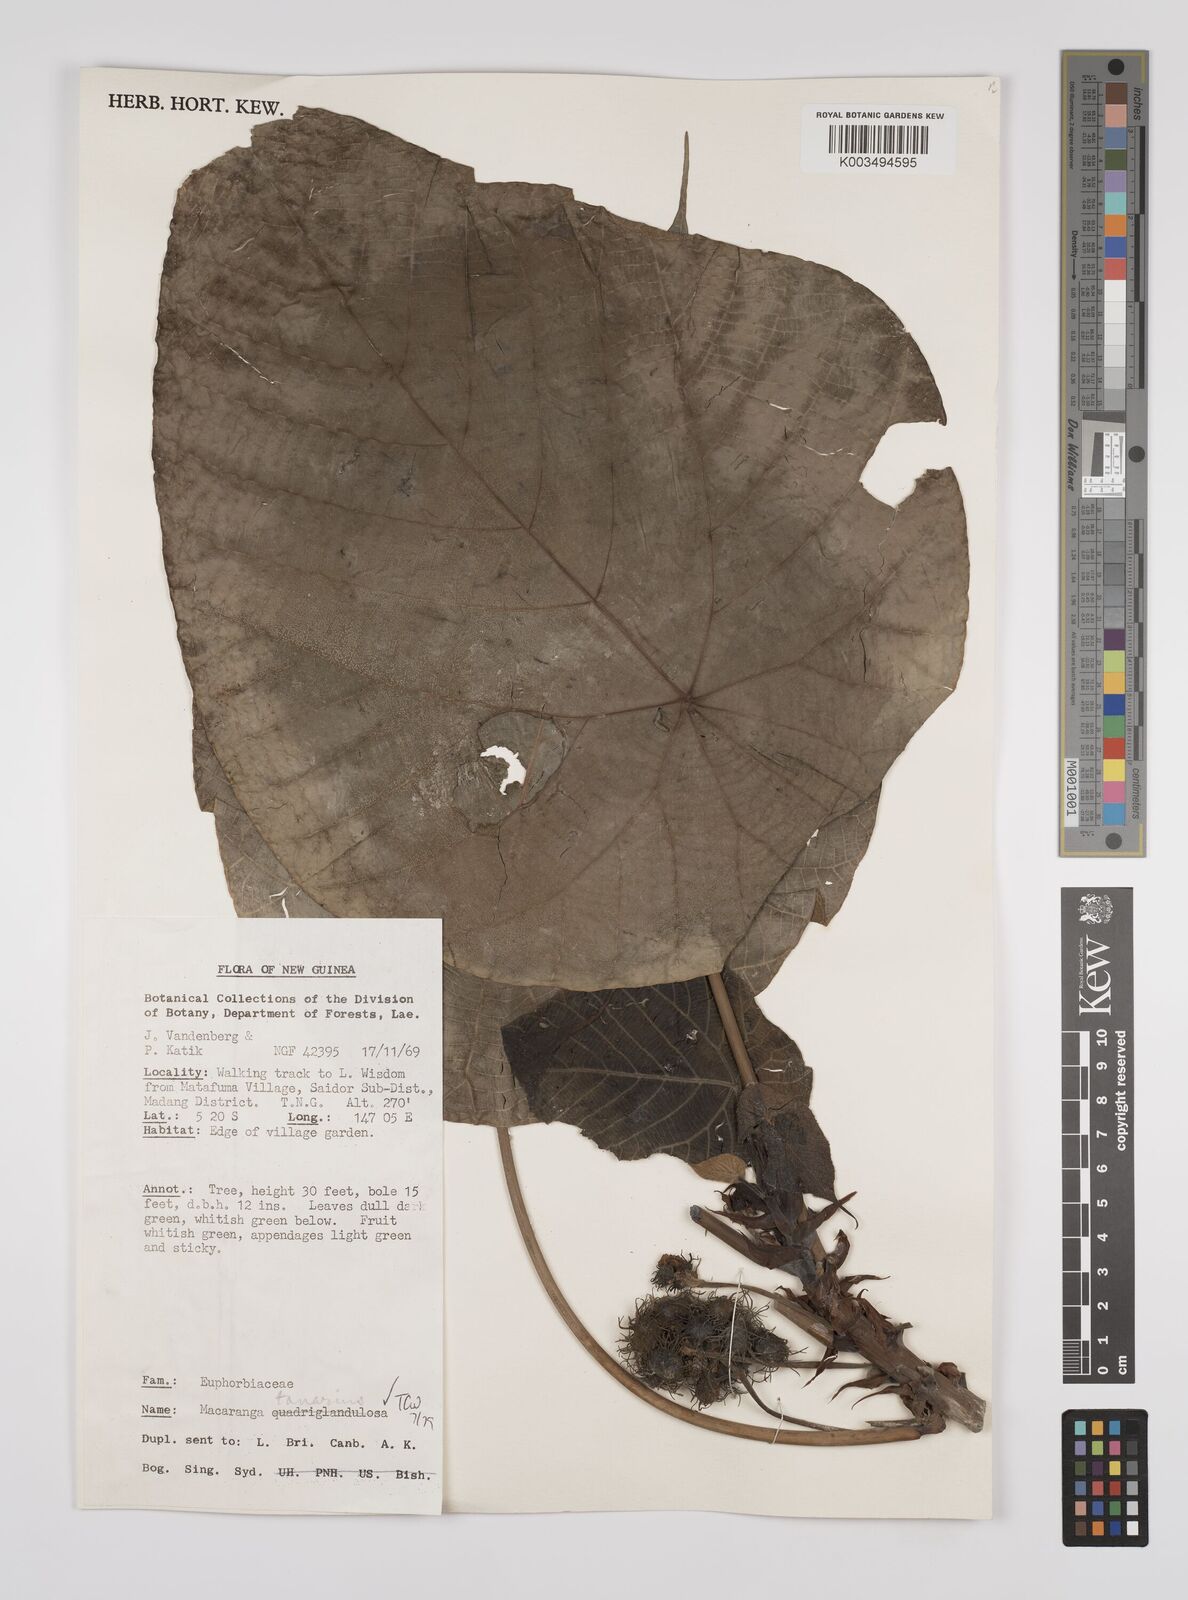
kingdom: Plantae
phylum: Tracheophyta
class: Magnoliopsida
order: Malpighiales
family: Euphorbiaceae
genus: Macaranga
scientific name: Macaranga tanarius
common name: Parasol leaf tree
